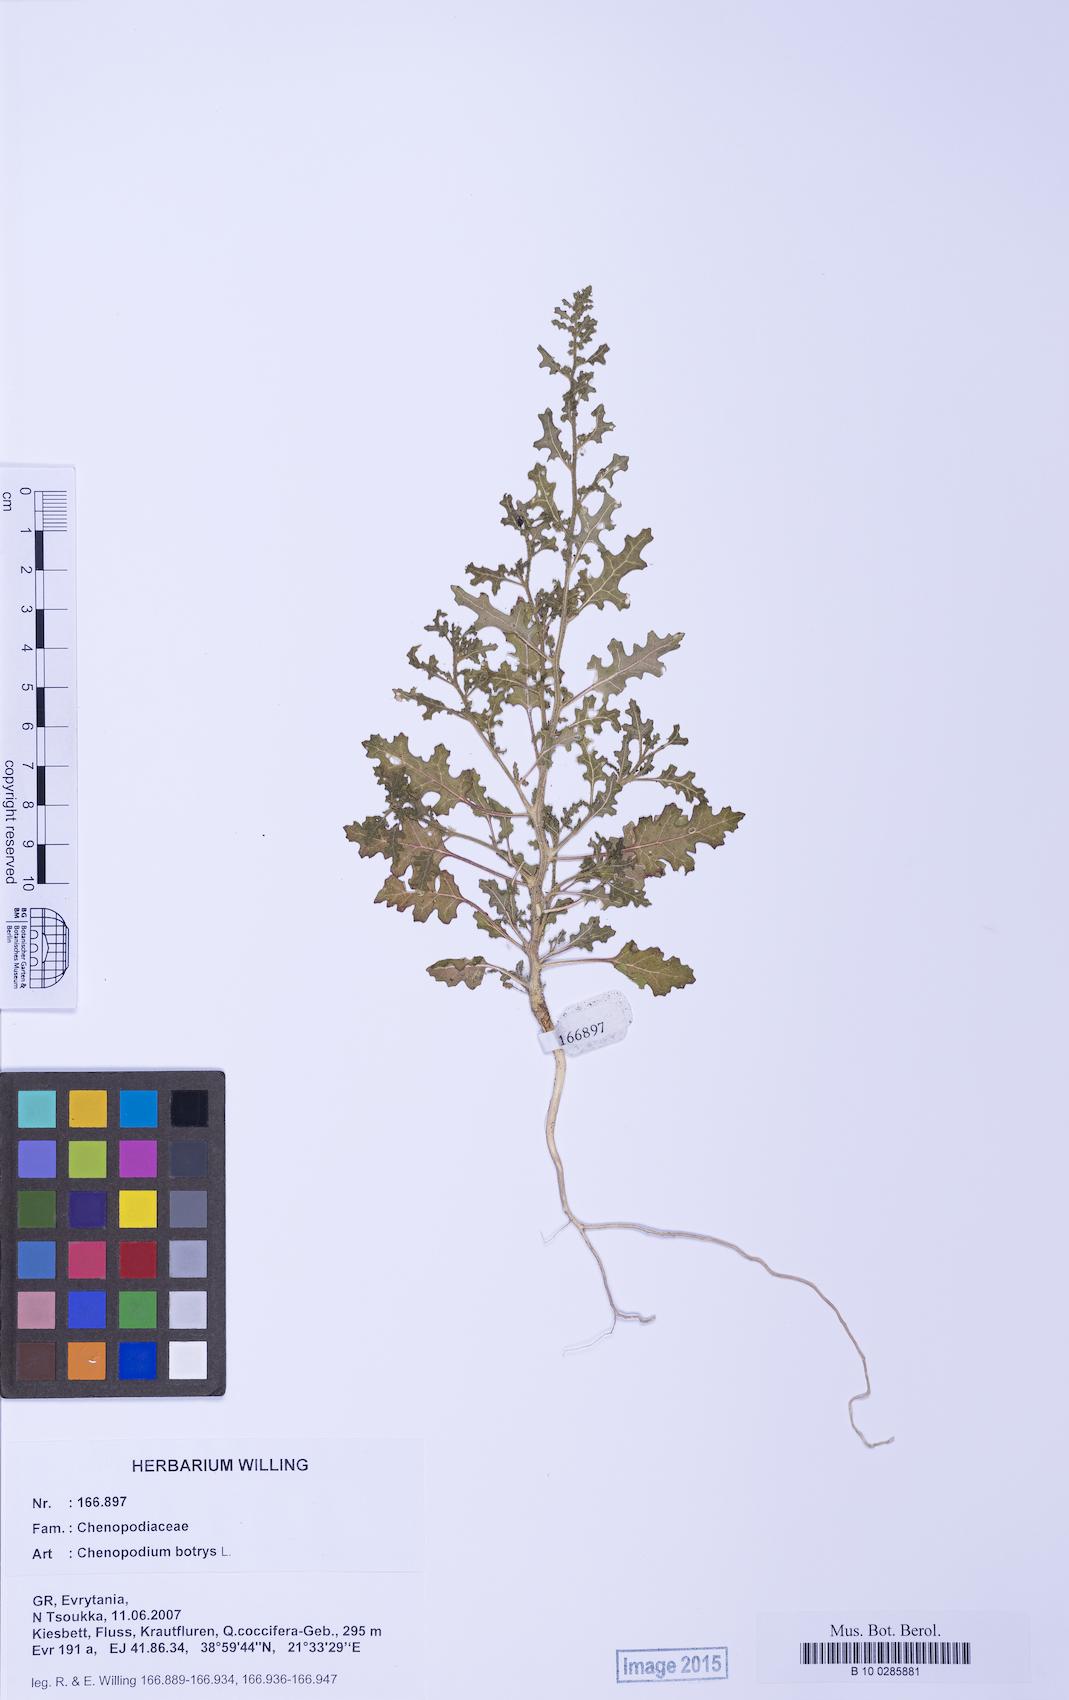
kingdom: Plantae
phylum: Tracheophyta
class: Magnoliopsida
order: Caryophyllales
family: Amaranthaceae
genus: Dysphania
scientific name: Dysphania botrys
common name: Feather-geranium
